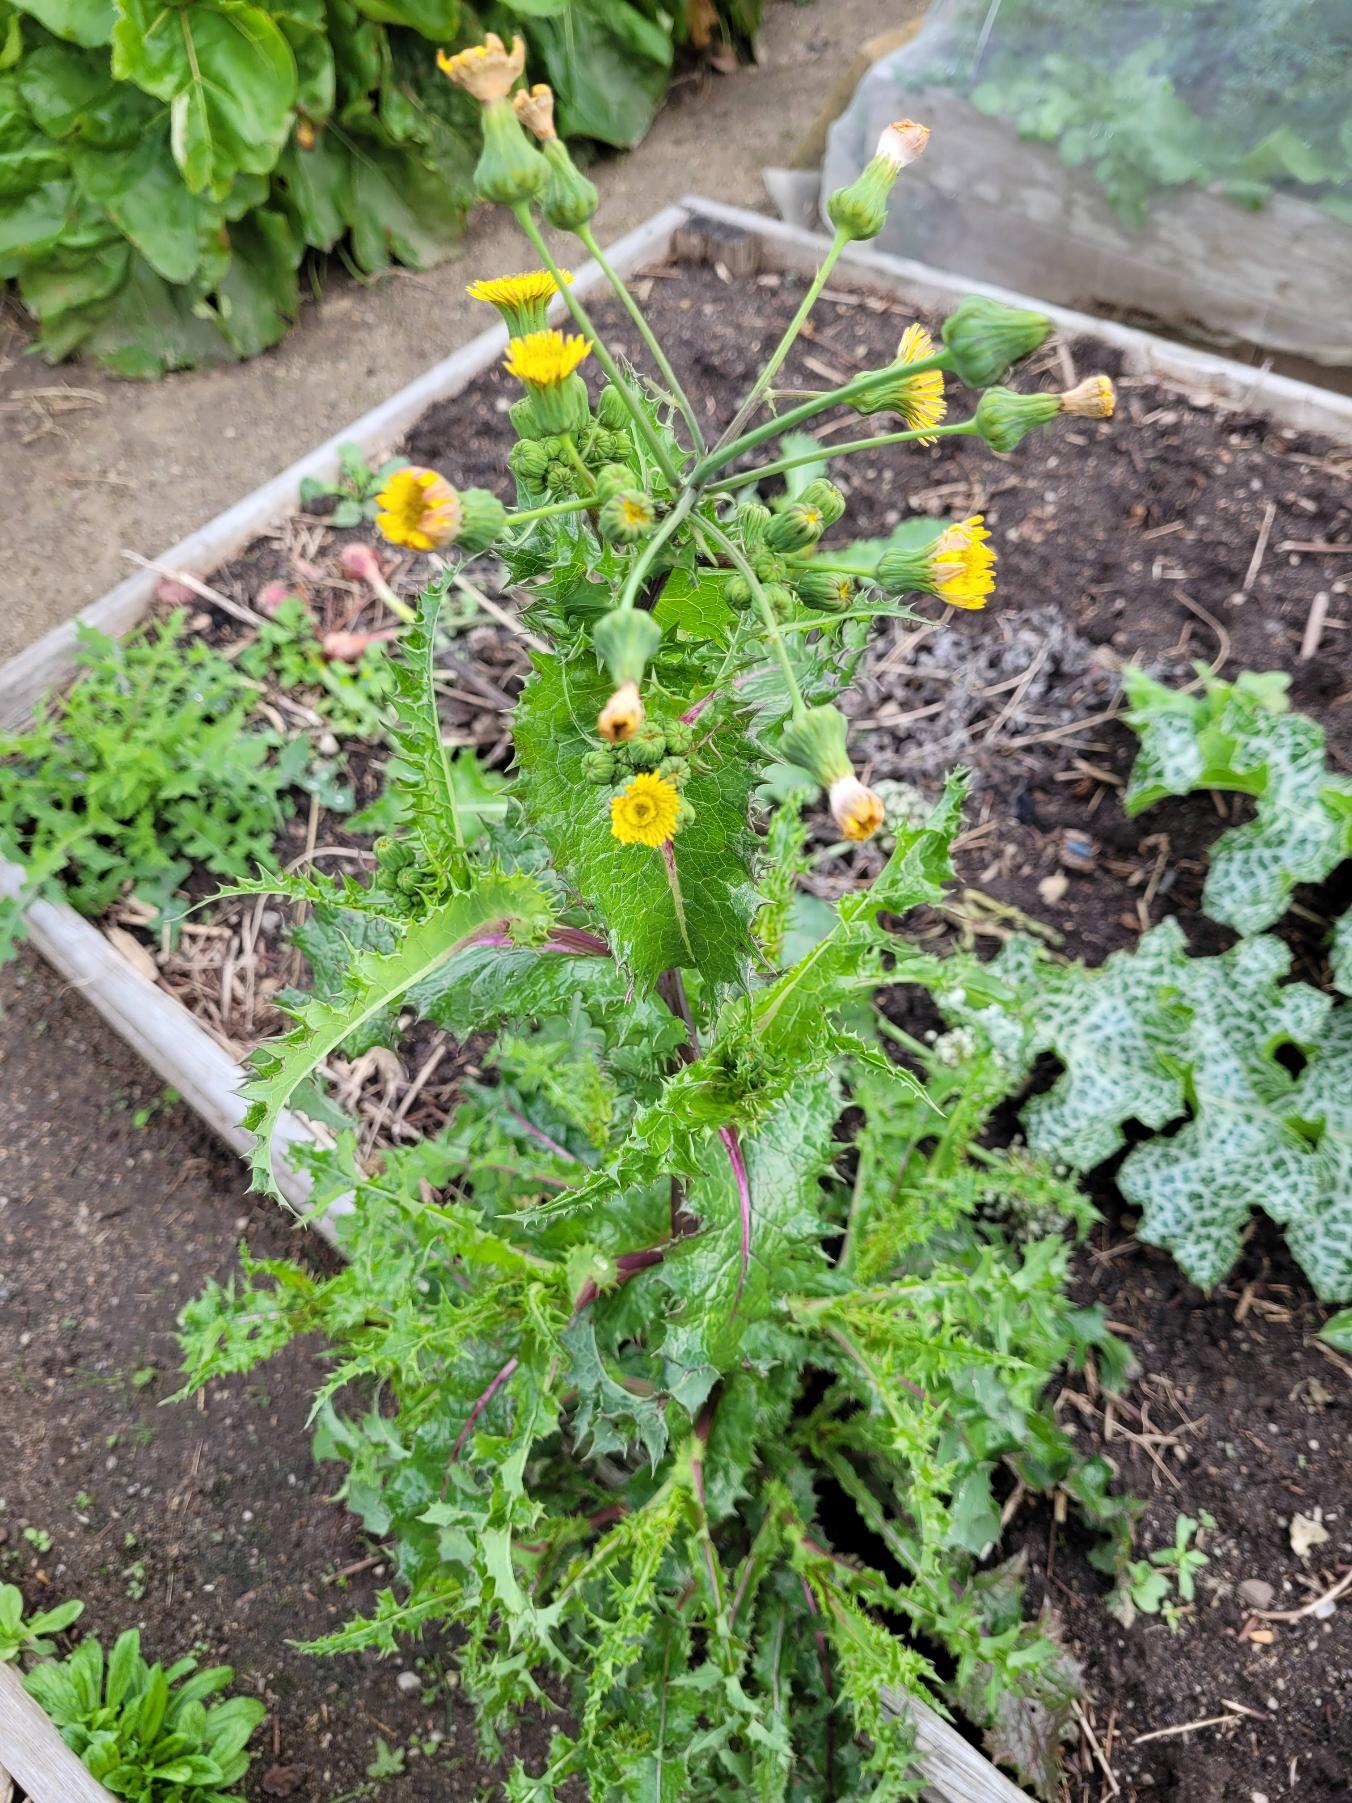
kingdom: Plantae
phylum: Tracheophyta
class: Magnoliopsida
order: Asterales
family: Asteraceae
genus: Sonchus
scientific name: Sonchus asper
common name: Ru svinemælk
